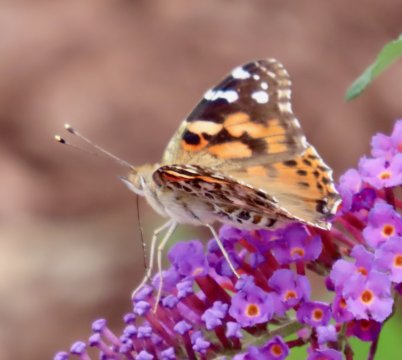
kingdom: Animalia
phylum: Arthropoda
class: Insecta
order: Lepidoptera
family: Nymphalidae
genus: Vanessa
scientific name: Vanessa cardui
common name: Painted Lady
